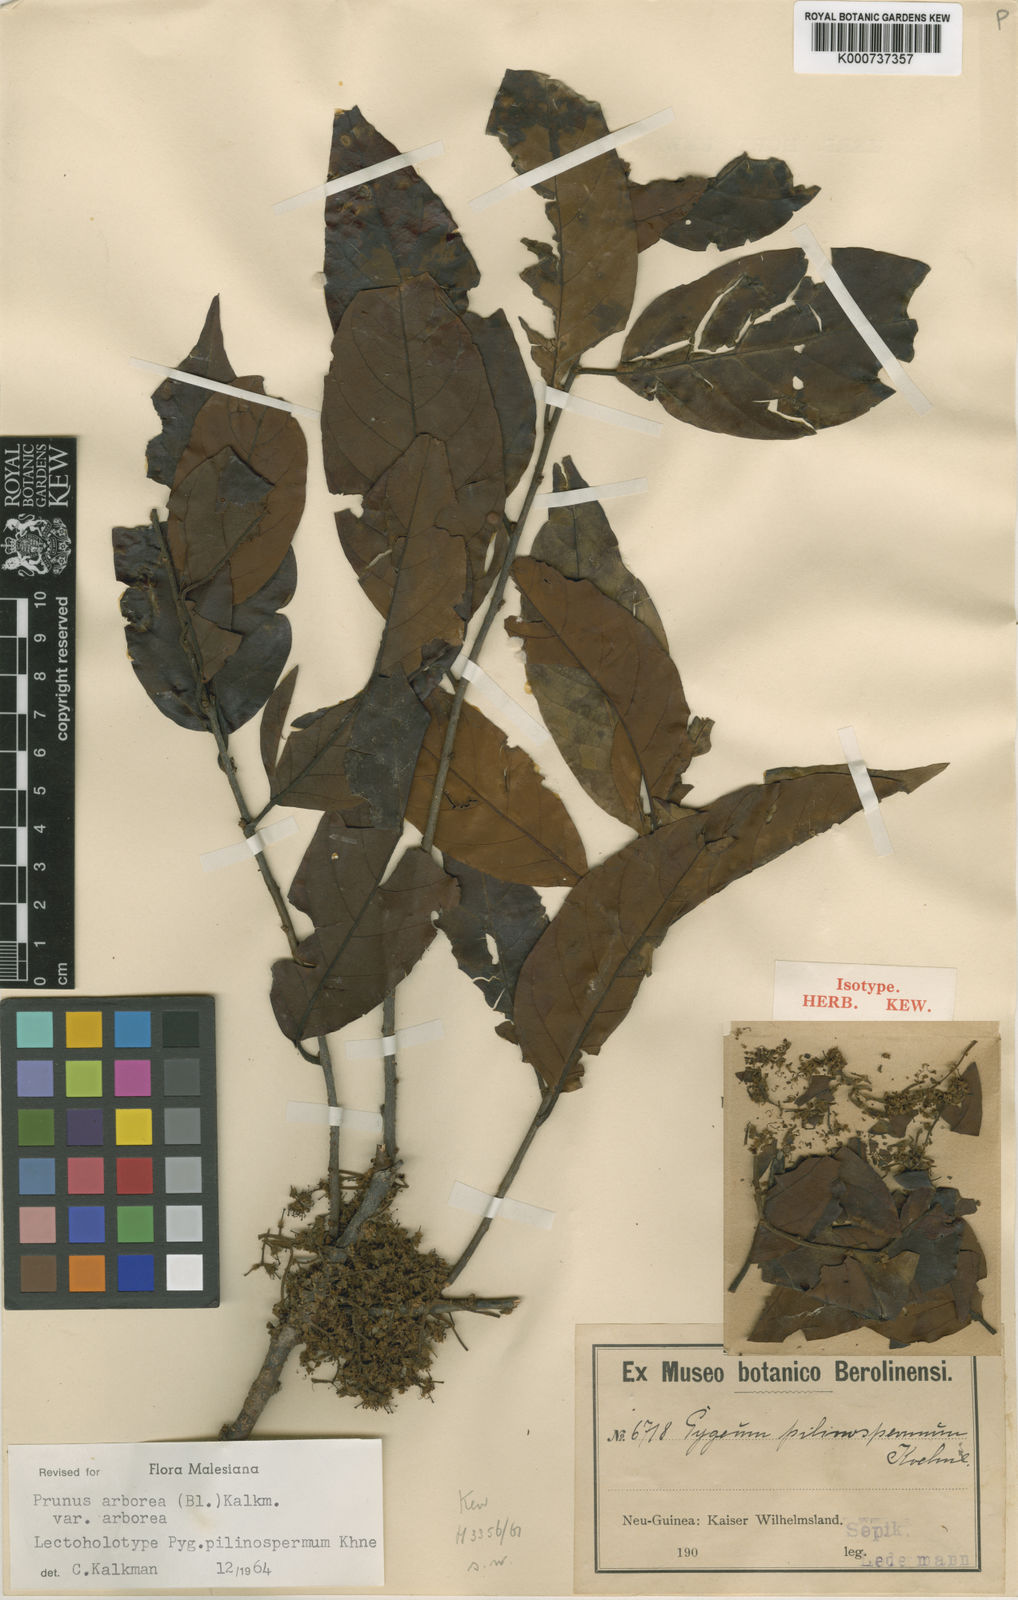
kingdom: Plantae
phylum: Tracheophyta
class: Magnoliopsida
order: Rosales
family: Rosaceae
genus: Prunus
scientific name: Prunus arborea
